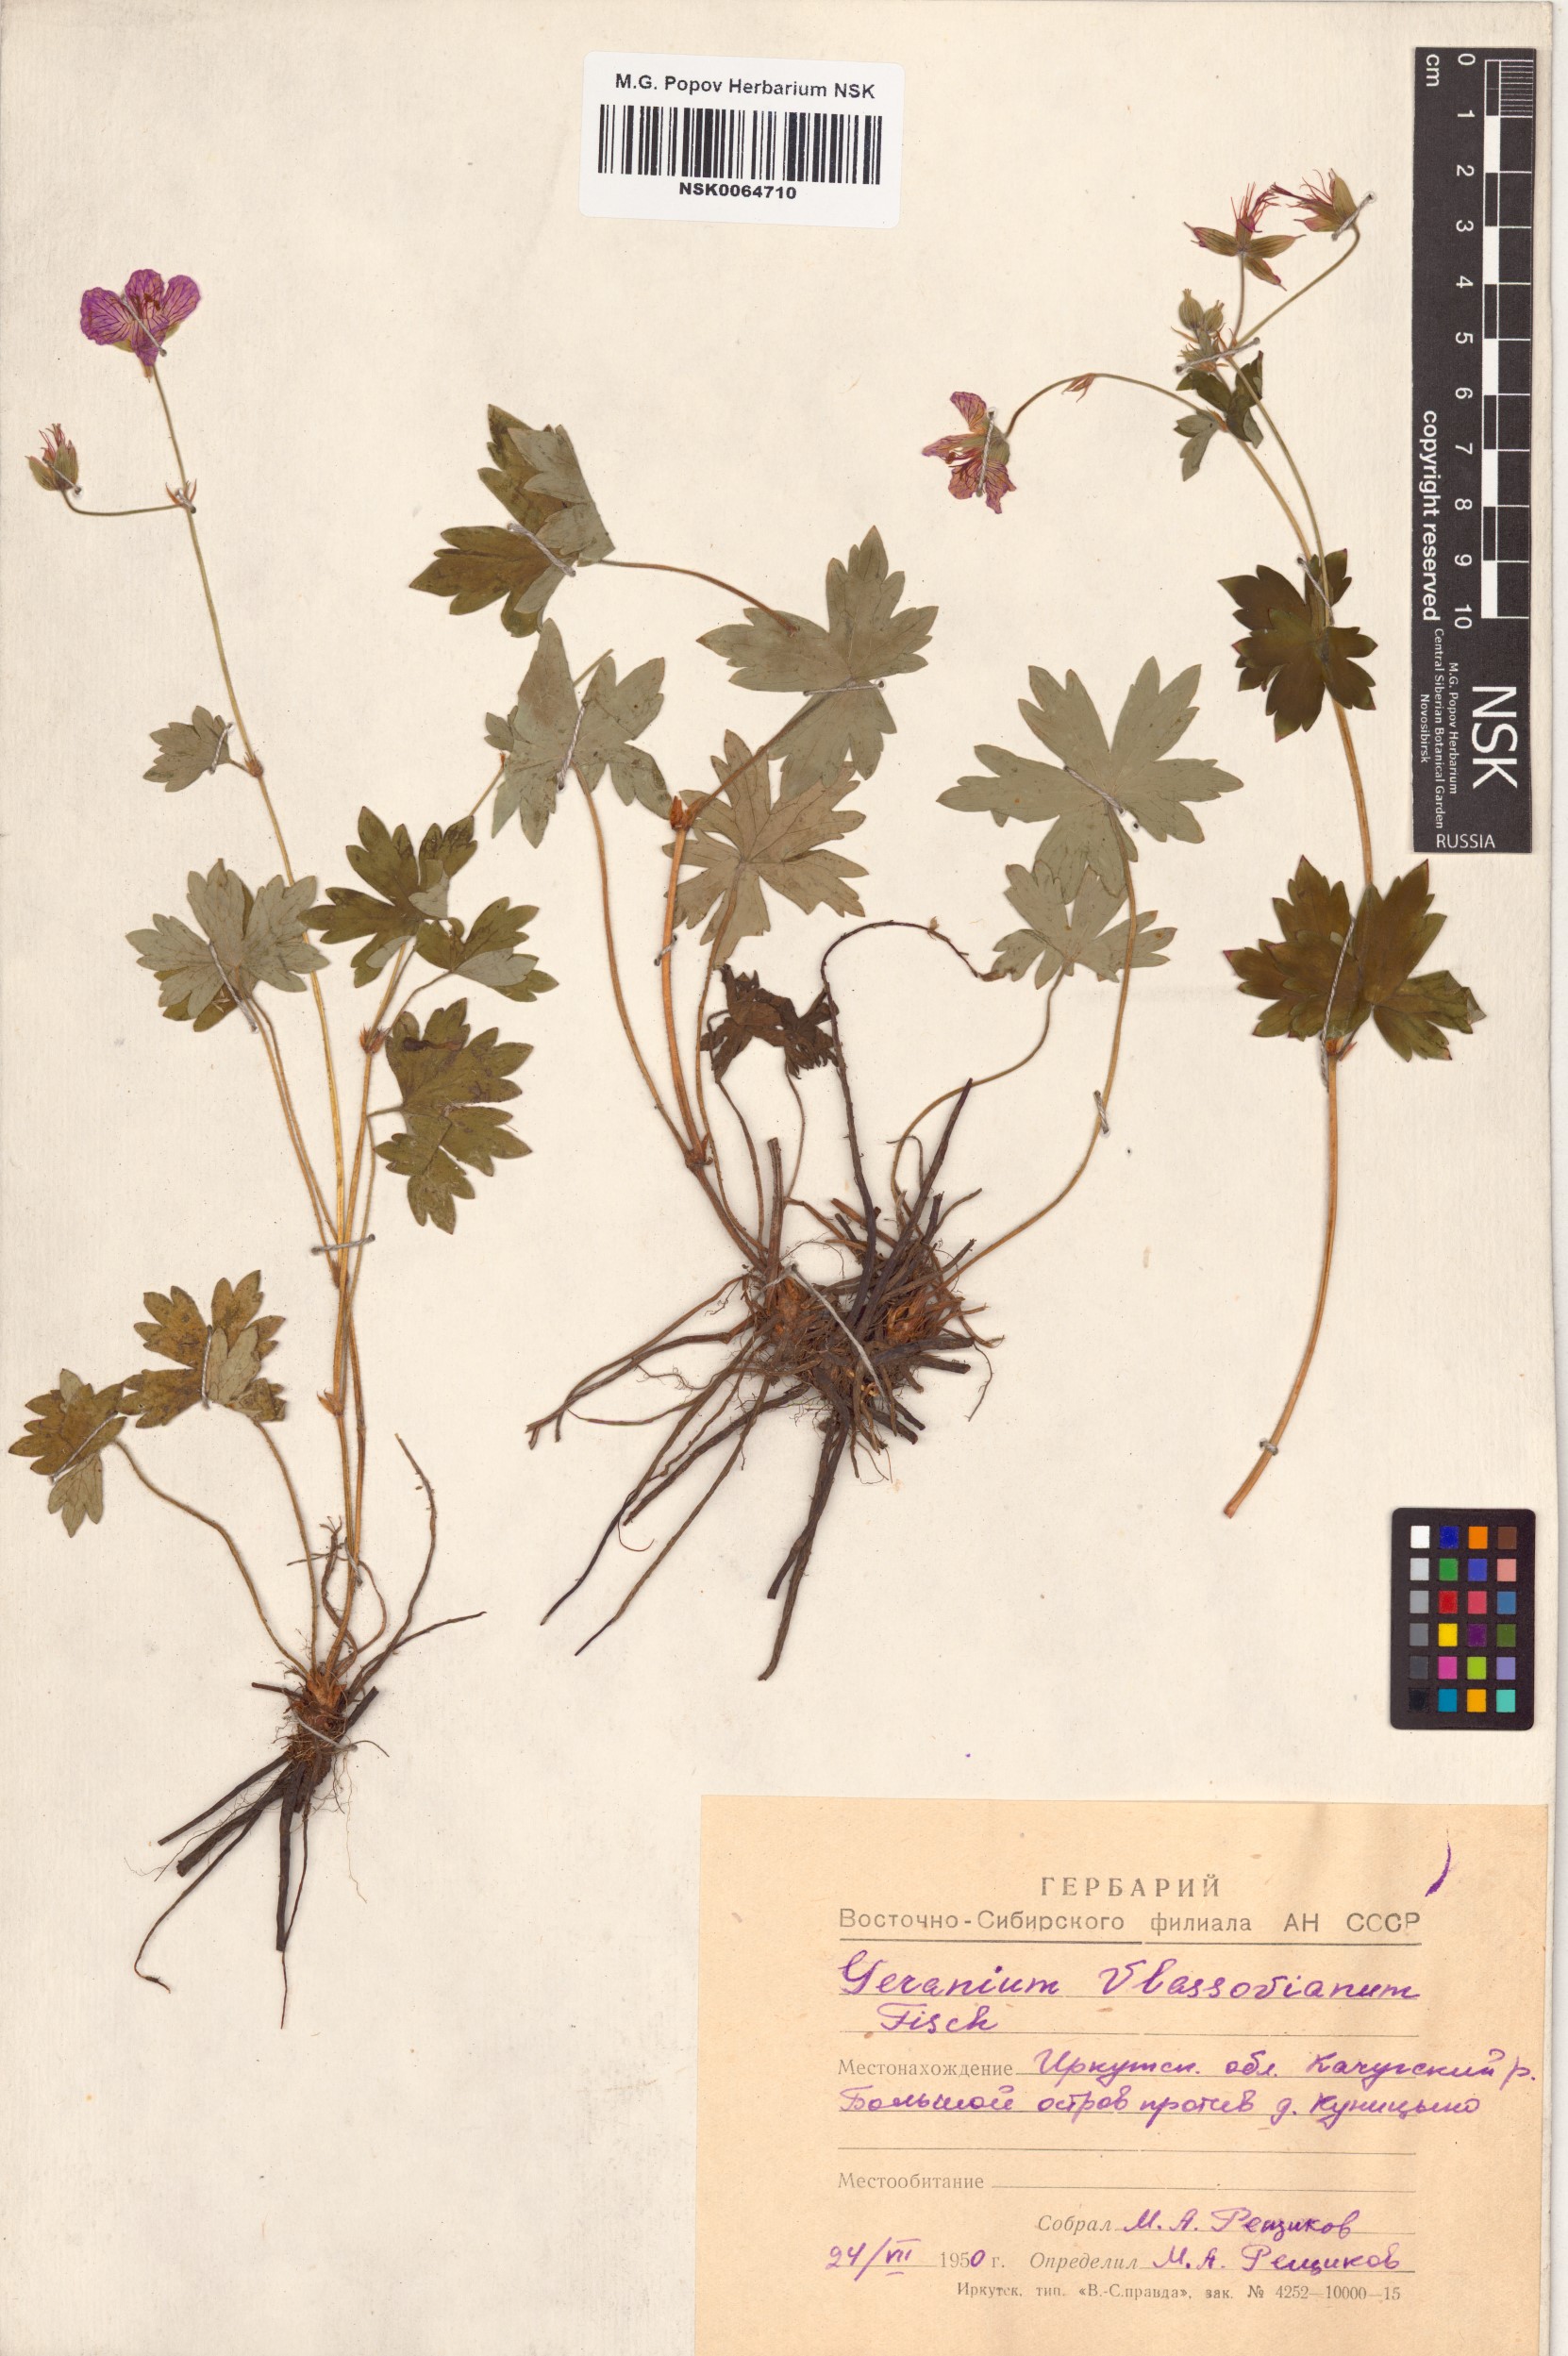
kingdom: Plantae
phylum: Tracheophyta
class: Magnoliopsida
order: Geraniales
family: Geraniaceae
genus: Geranium
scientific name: Geranium wlassovianum
